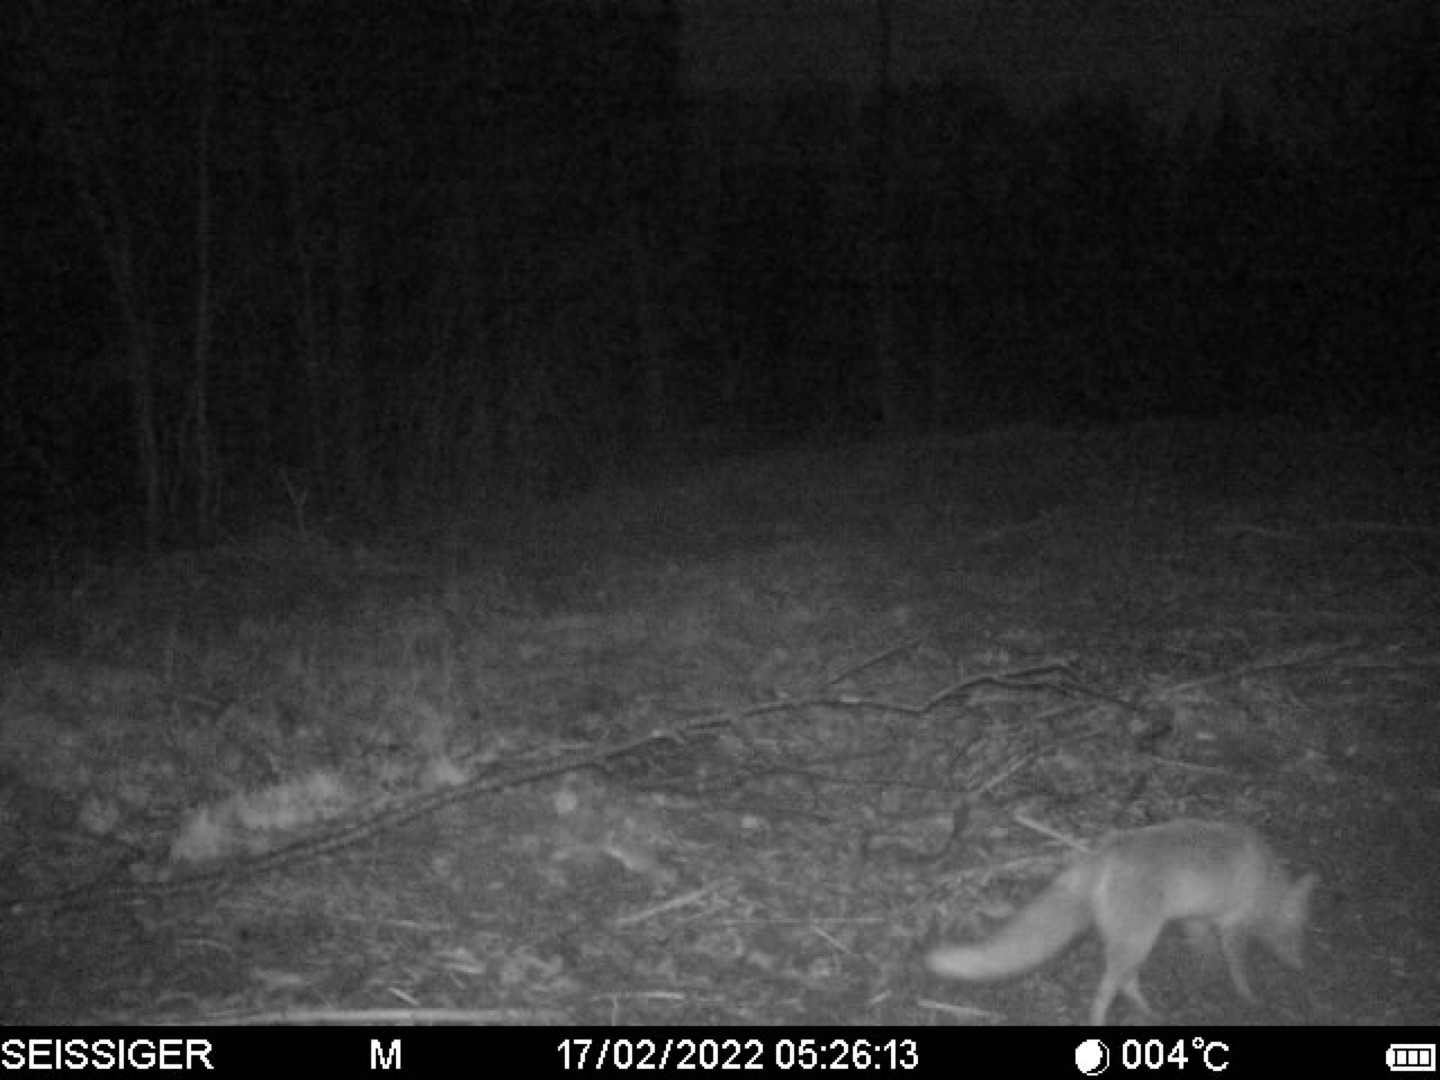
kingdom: Animalia
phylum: Chordata
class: Mammalia
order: Carnivora
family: Canidae
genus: Vulpes
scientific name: Vulpes vulpes
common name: Ræv
